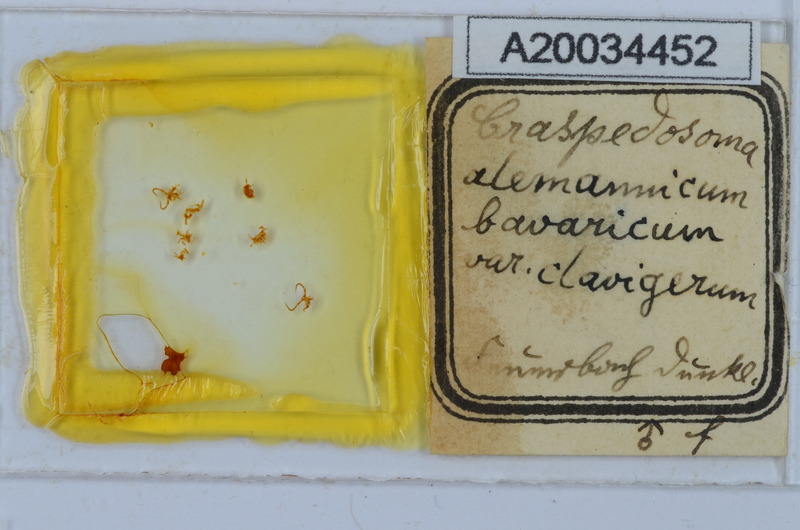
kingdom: Animalia
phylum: Arthropoda
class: Diplopoda
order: Chordeumatida
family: Craspedosomatidae
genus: Craspedosoma
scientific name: Craspedosoma rawlinsii
